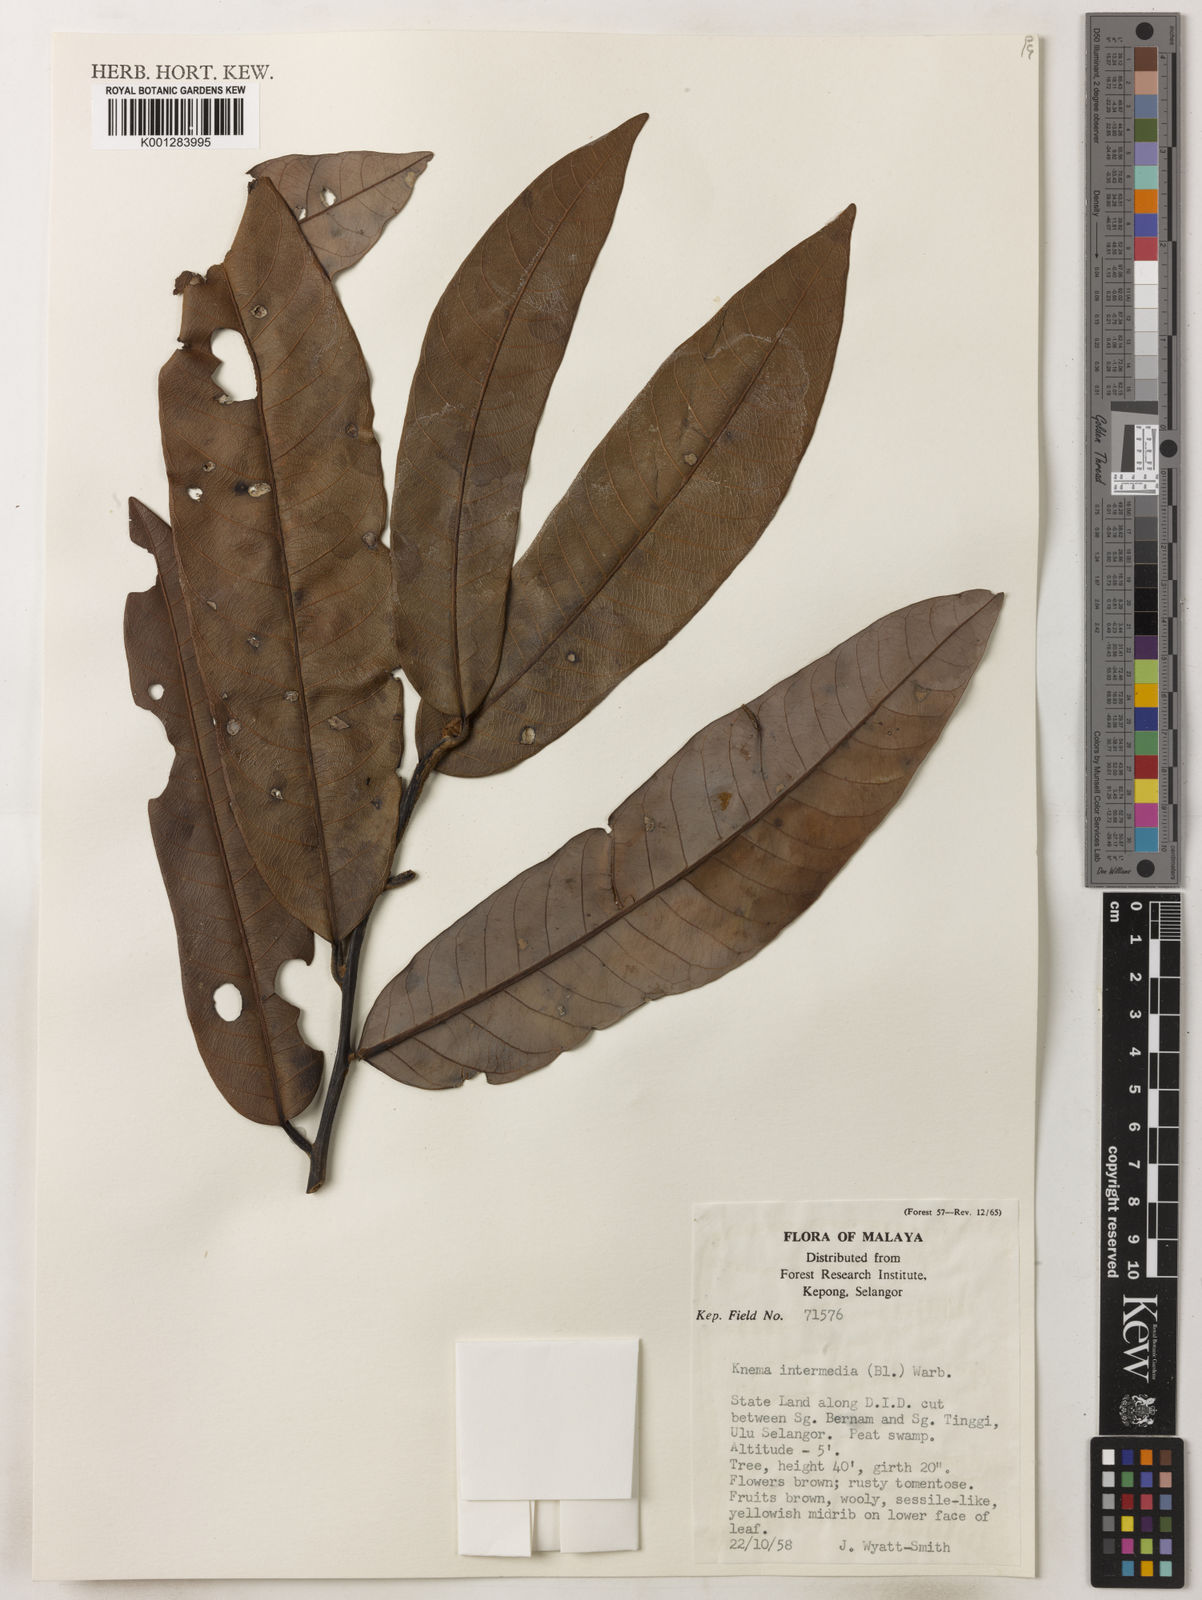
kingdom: Plantae
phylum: Tracheophyta
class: Magnoliopsida
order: Magnoliales
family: Myristicaceae
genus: Knema
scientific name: Knema intermedia
